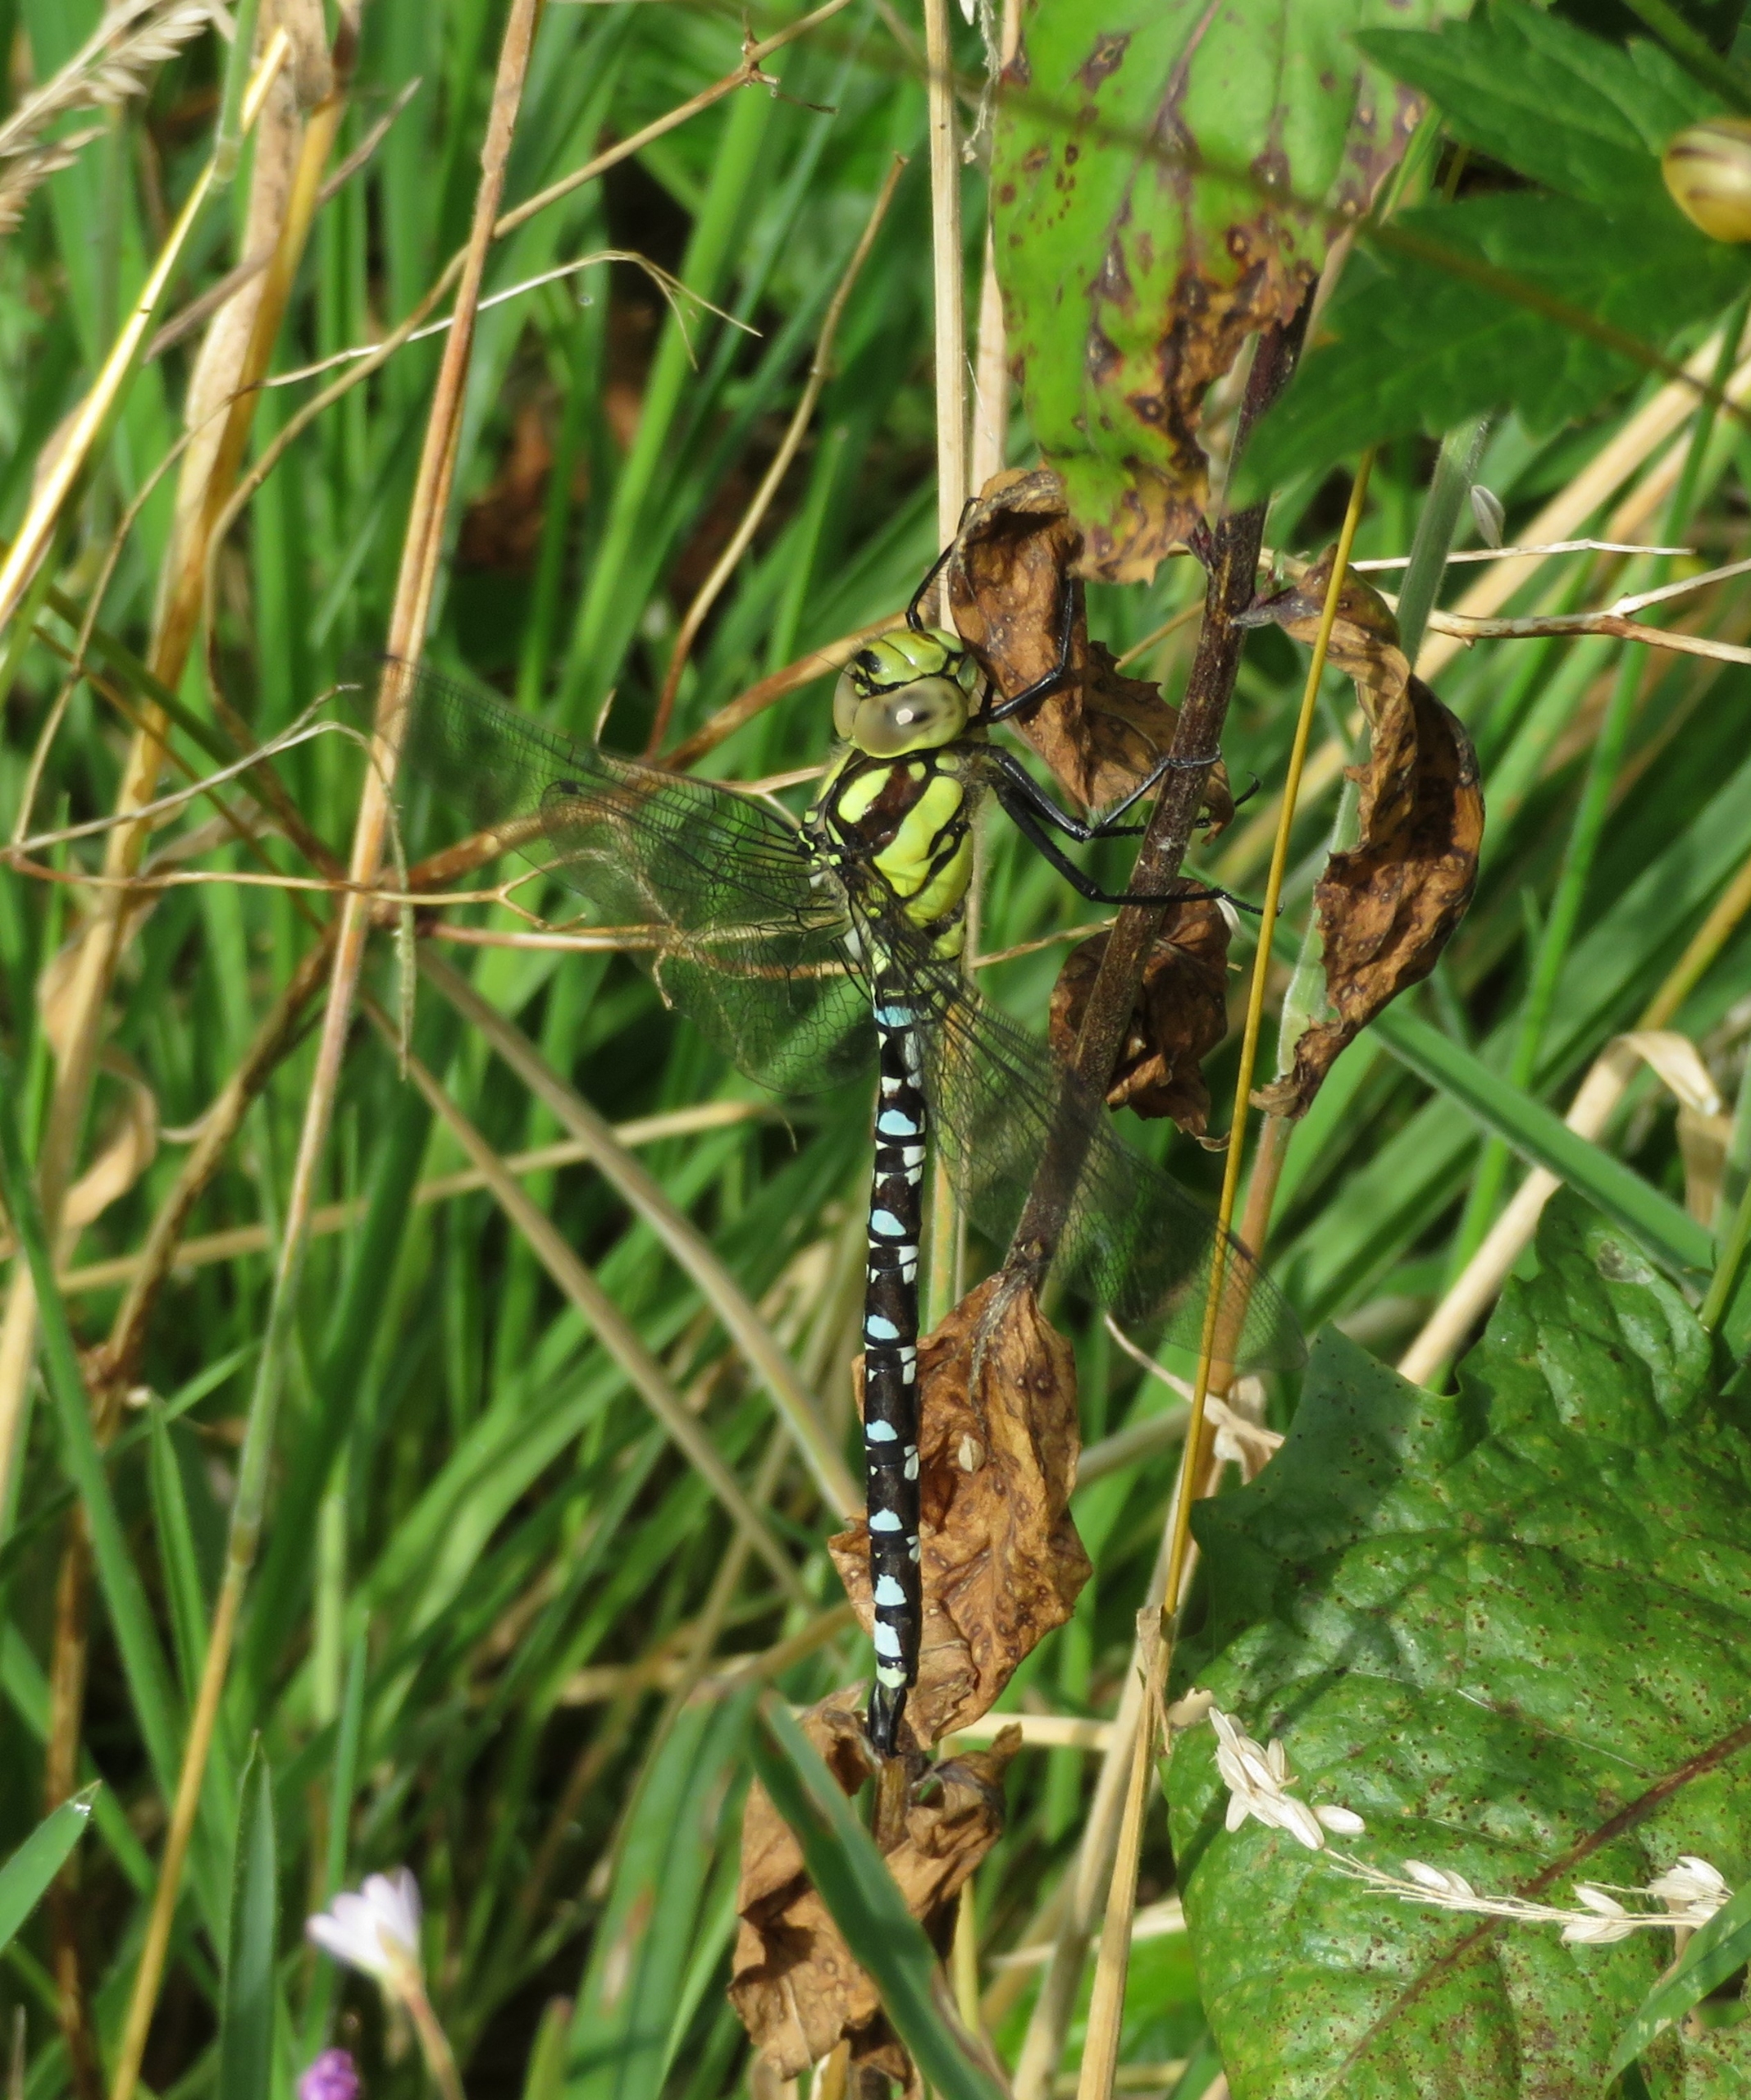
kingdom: Animalia
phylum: Arthropoda
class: Insecta
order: Odonata
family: Aeshnidae
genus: Aeshna
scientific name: Aeshna cyanea
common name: Blå mosaikguldsmed
